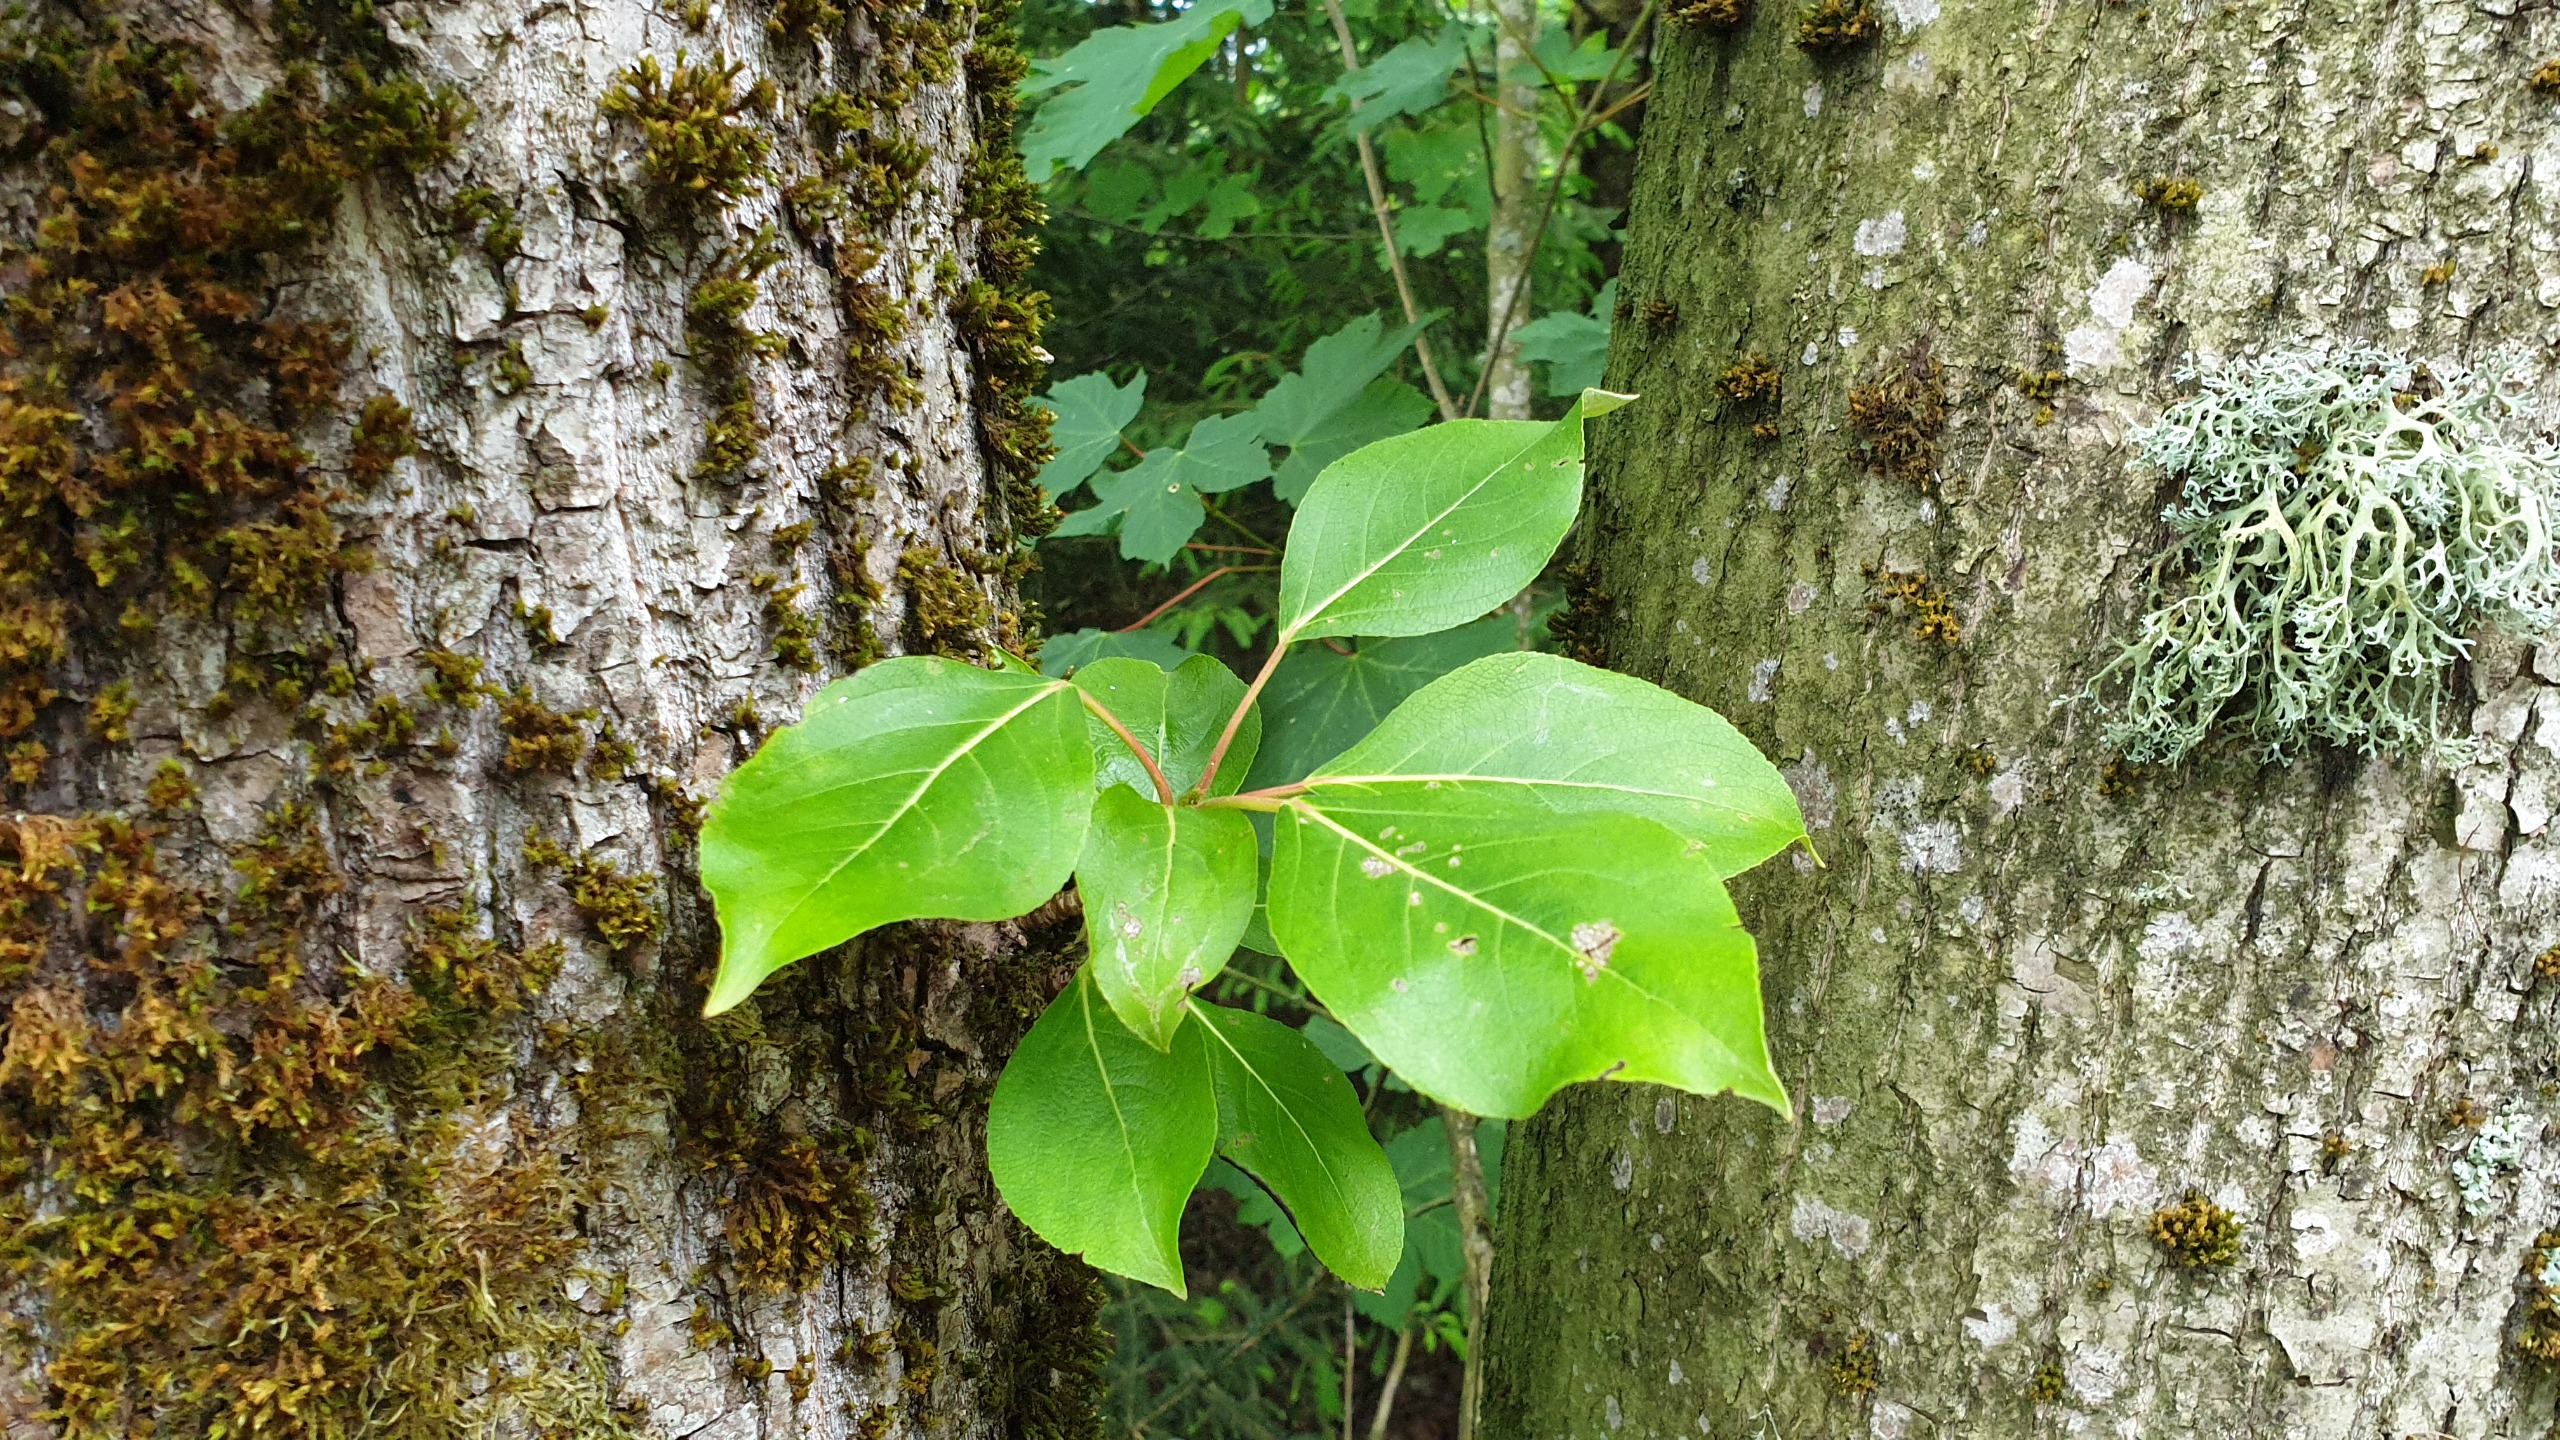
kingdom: Plantae
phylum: Tracheophyta
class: Magnoliopsida
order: Malpighiales
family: Salicaceae
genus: Populus
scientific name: Populus trichocarpa
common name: Vestamerikansk poppel
